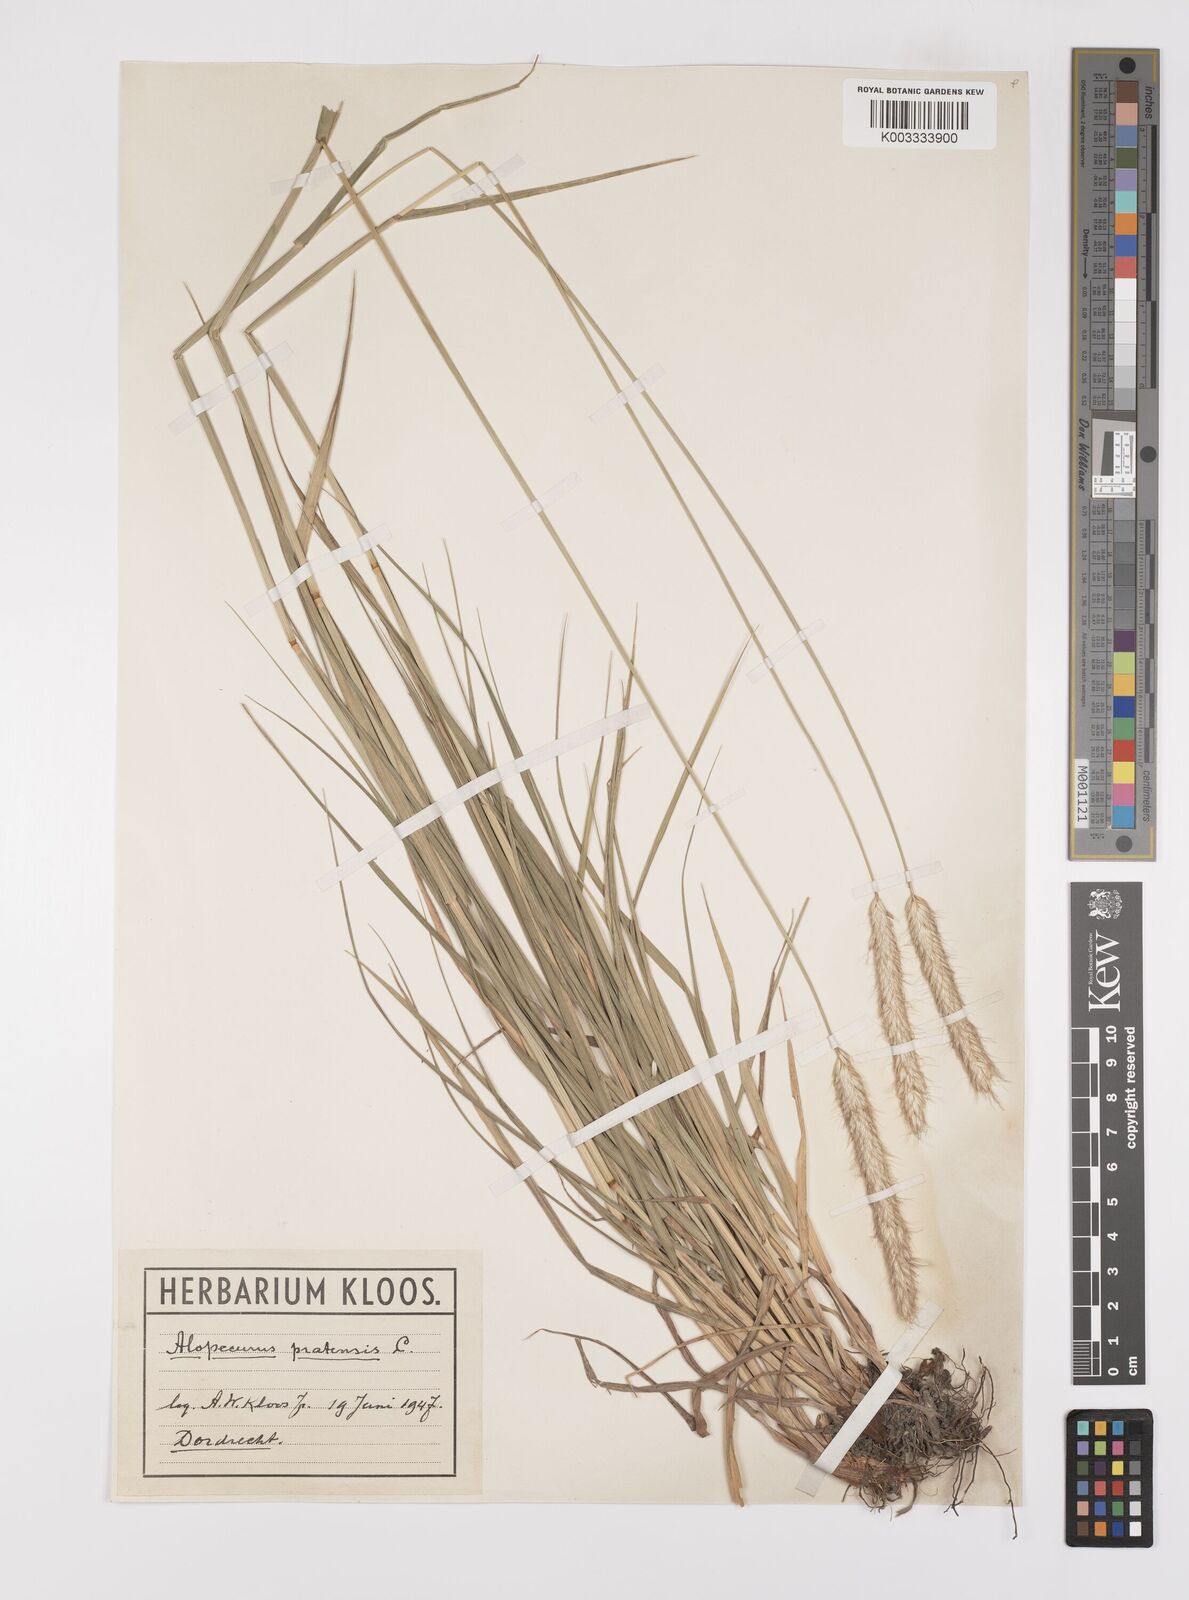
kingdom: Plantae
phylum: Tracheophyta
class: Liliopsida
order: Poales
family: Poaceae
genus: Alopecurus
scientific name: Alopecurus pratensis
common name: Meadow foxtail
